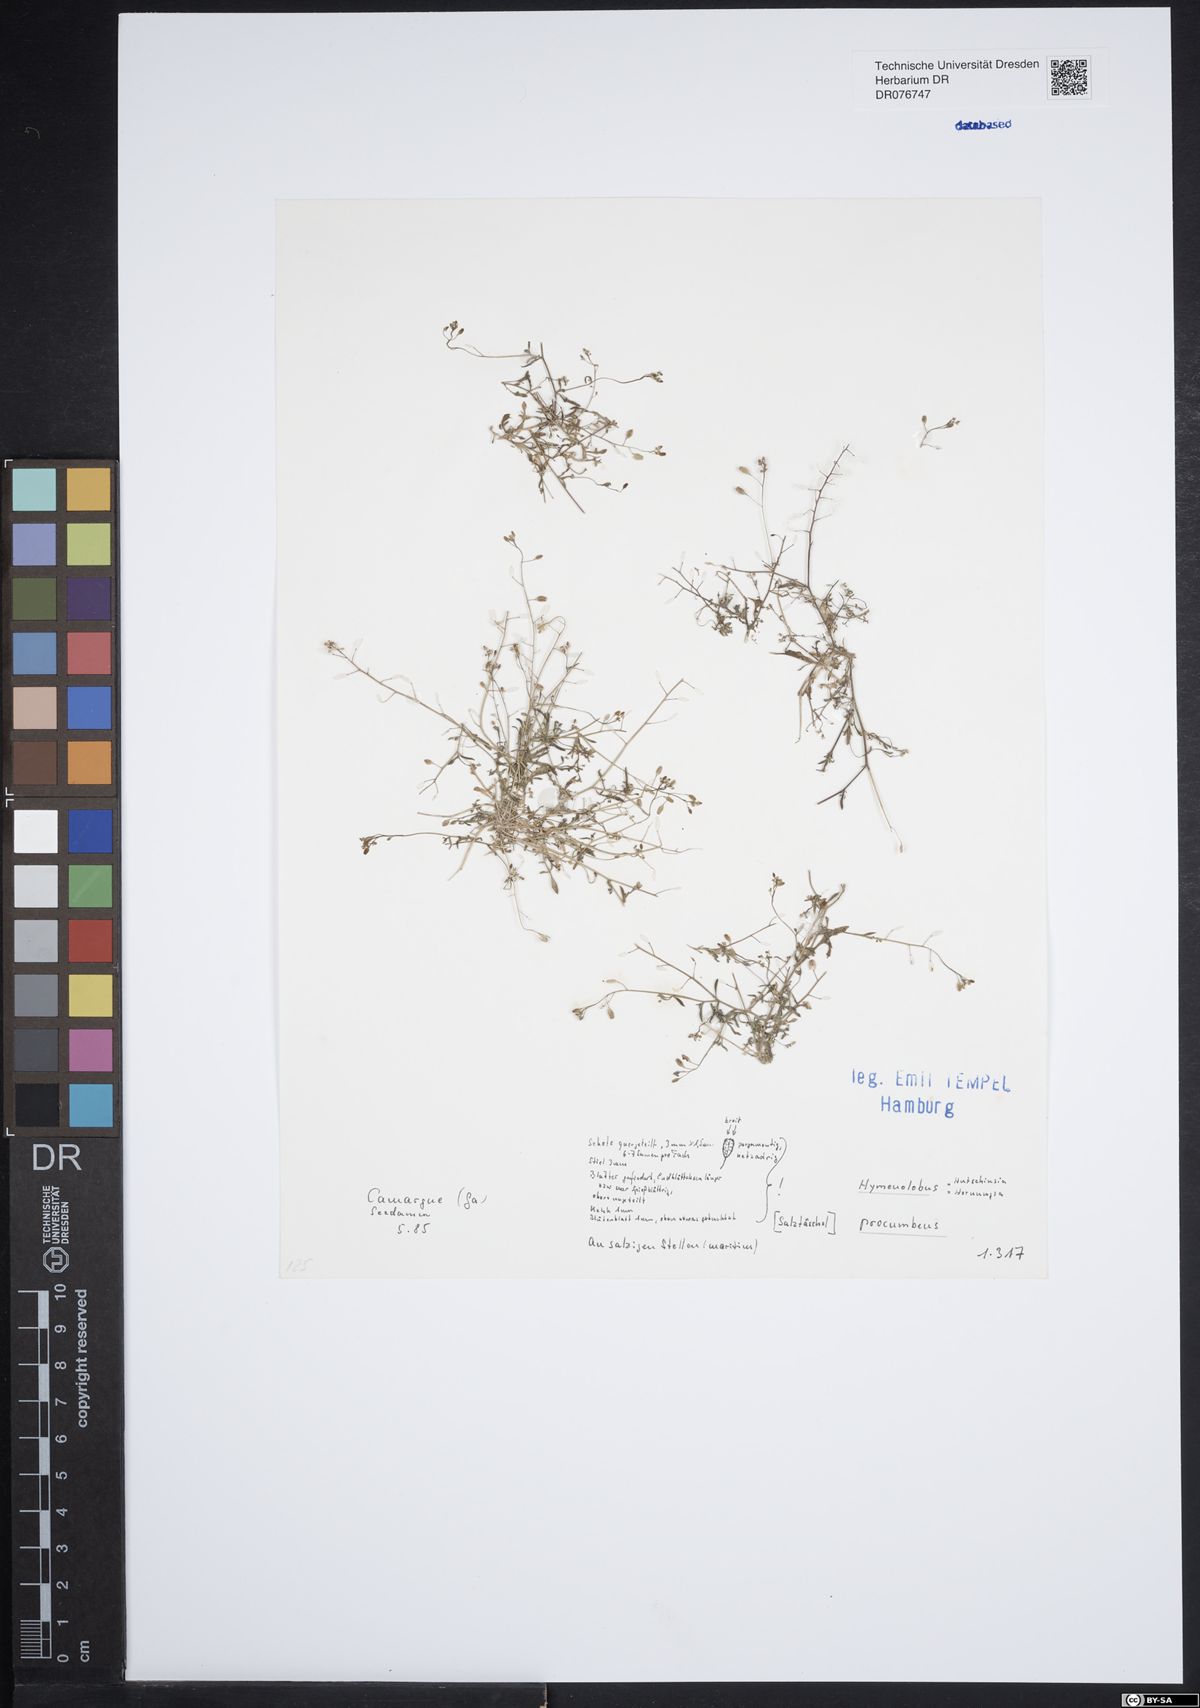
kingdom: Plantae
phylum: Tracheophyta
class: Magnoliopsida
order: Brassicales
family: Brassicaceae
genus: Hornungia
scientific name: Hornungia procumbens
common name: Oval purse
